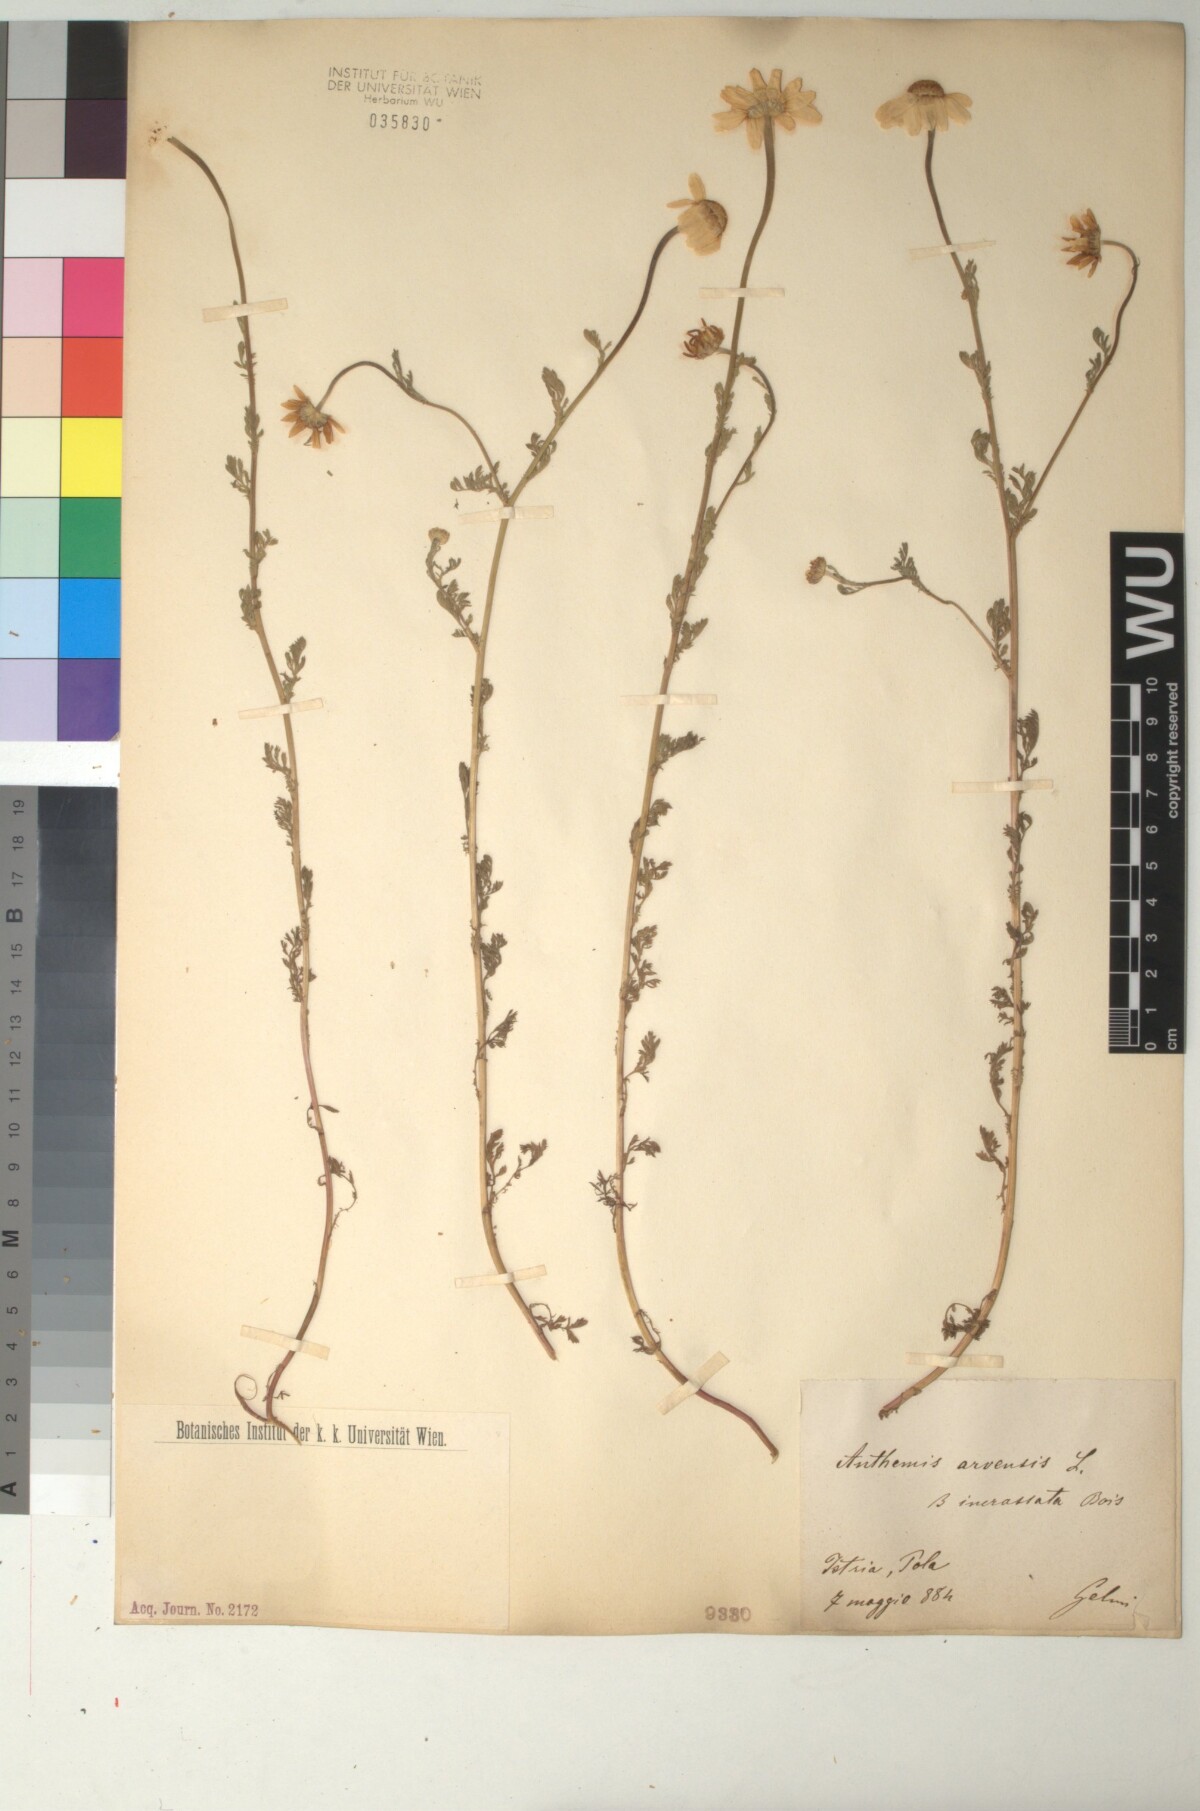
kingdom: Plantae
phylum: Tracheophyta
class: Magnoliopsida
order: Asterales
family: Asteraceae
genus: Anthemis
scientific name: Anthemis arvensis
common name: Corn chamomile
